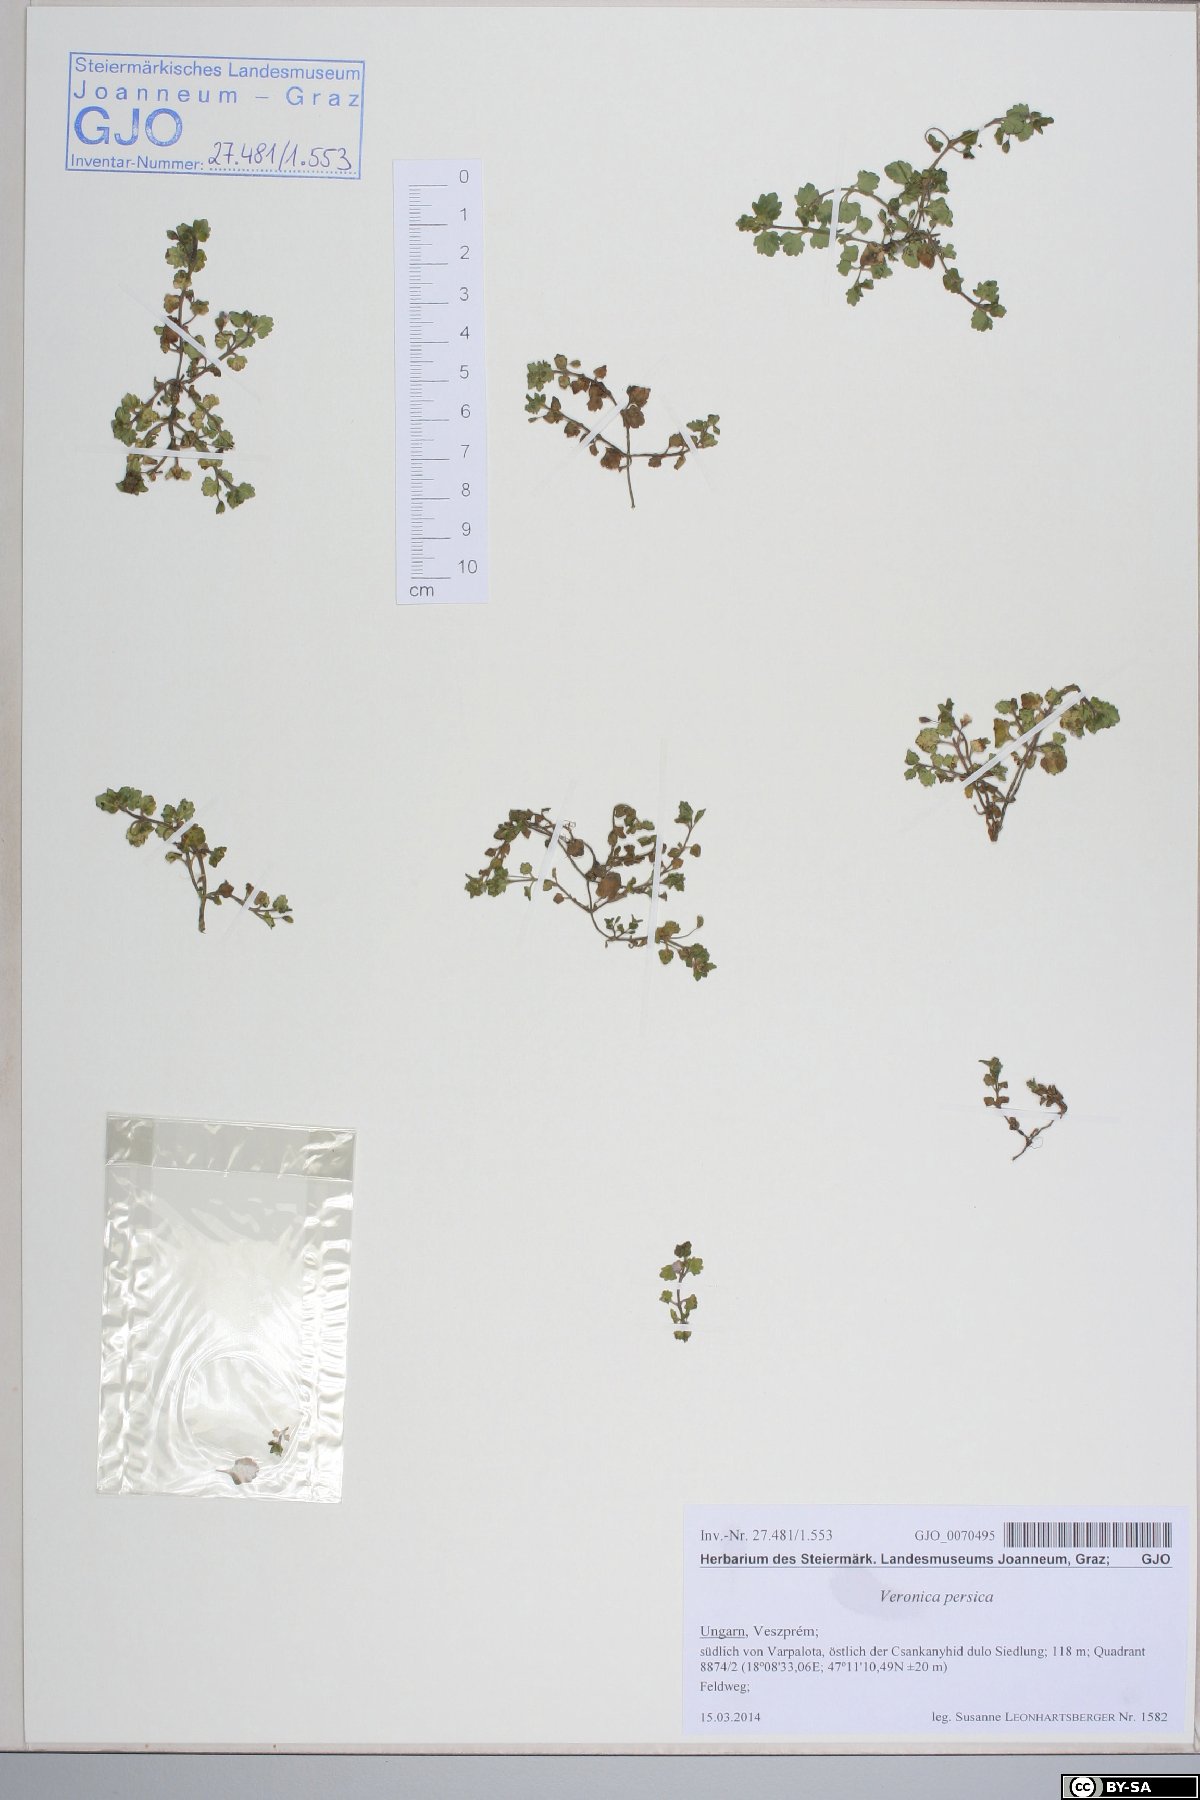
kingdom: Plantae
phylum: Tracheophyta
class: Magnoliopsida
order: Lamiales
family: Plantaginaceae
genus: Veronica
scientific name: Veronica persica
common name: Common field-speedwell
